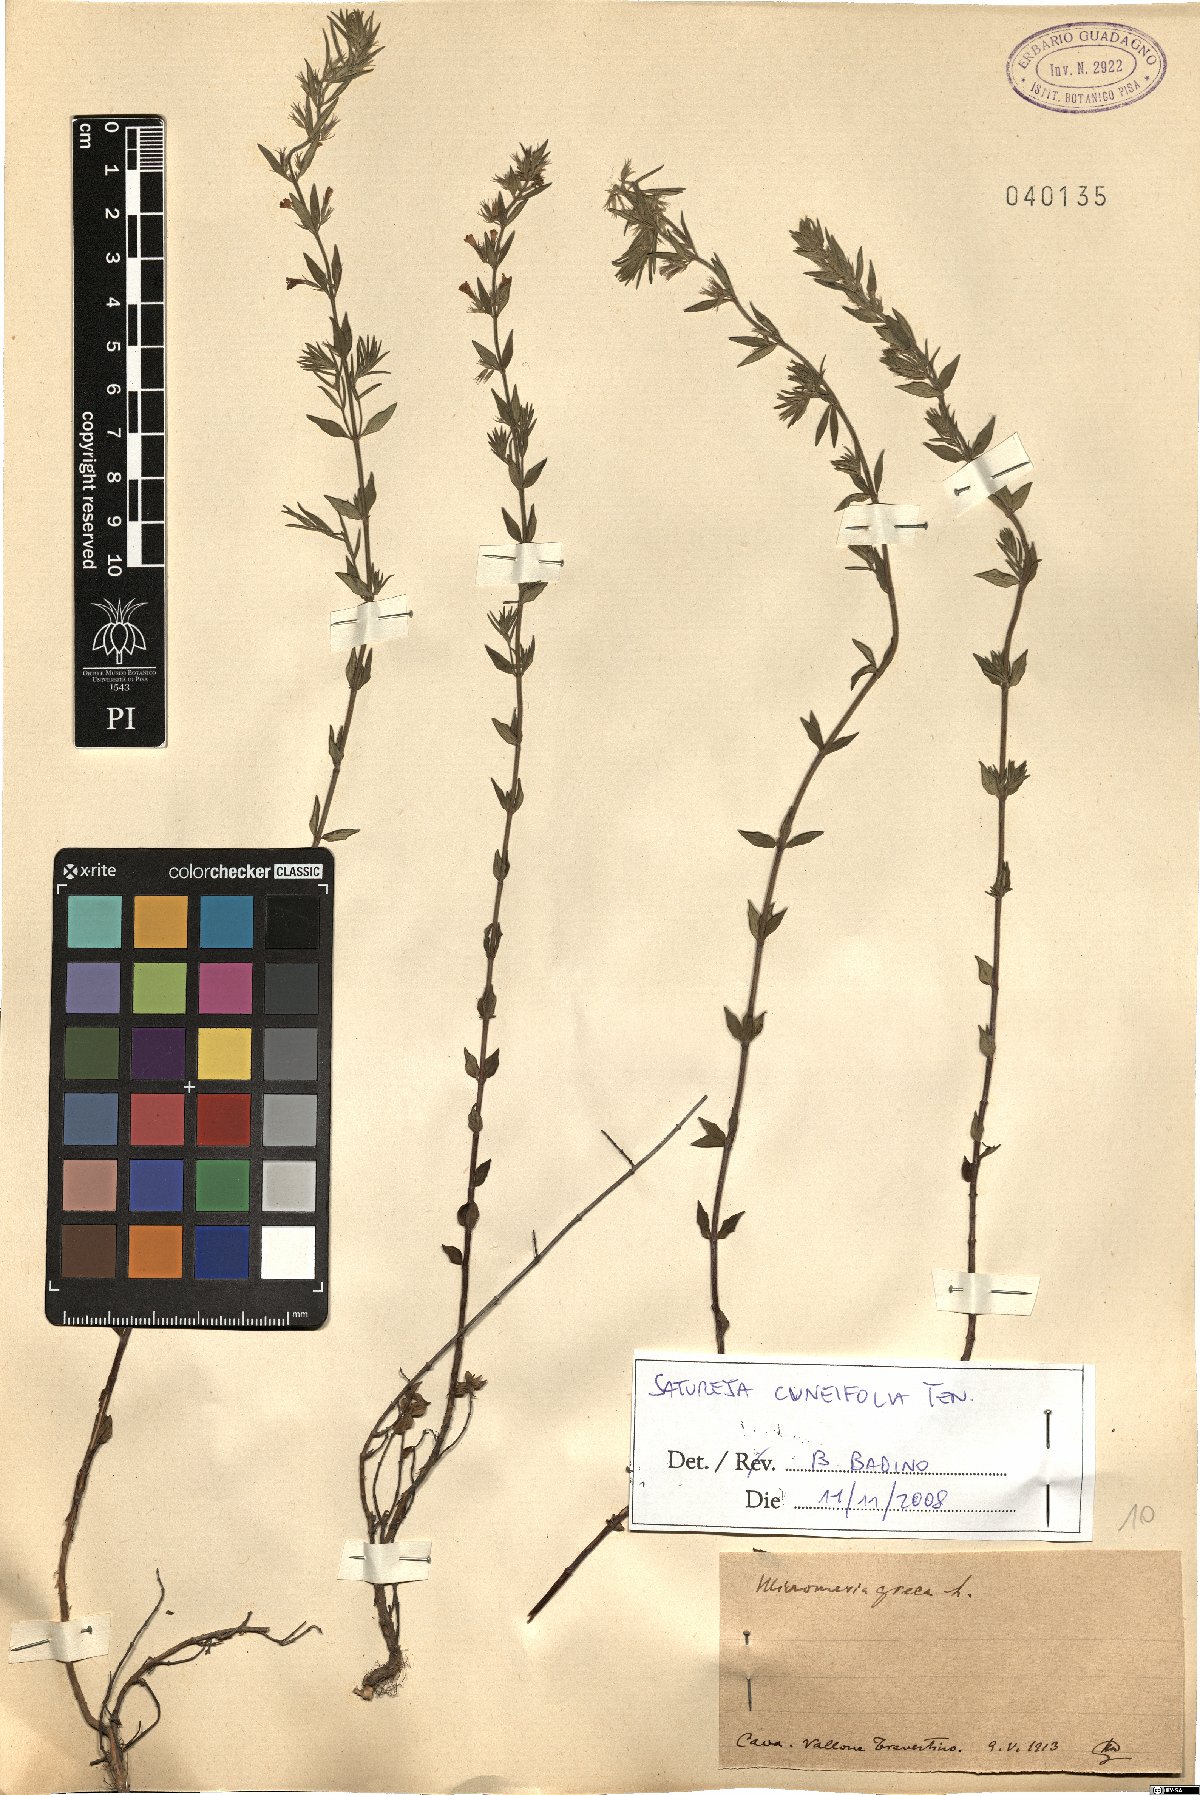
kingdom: Plantae
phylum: Tracheophyta
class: Magnoliopsida
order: Lamiales
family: Lamiaceae
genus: Satureja
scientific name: Satureja cuneifolia
